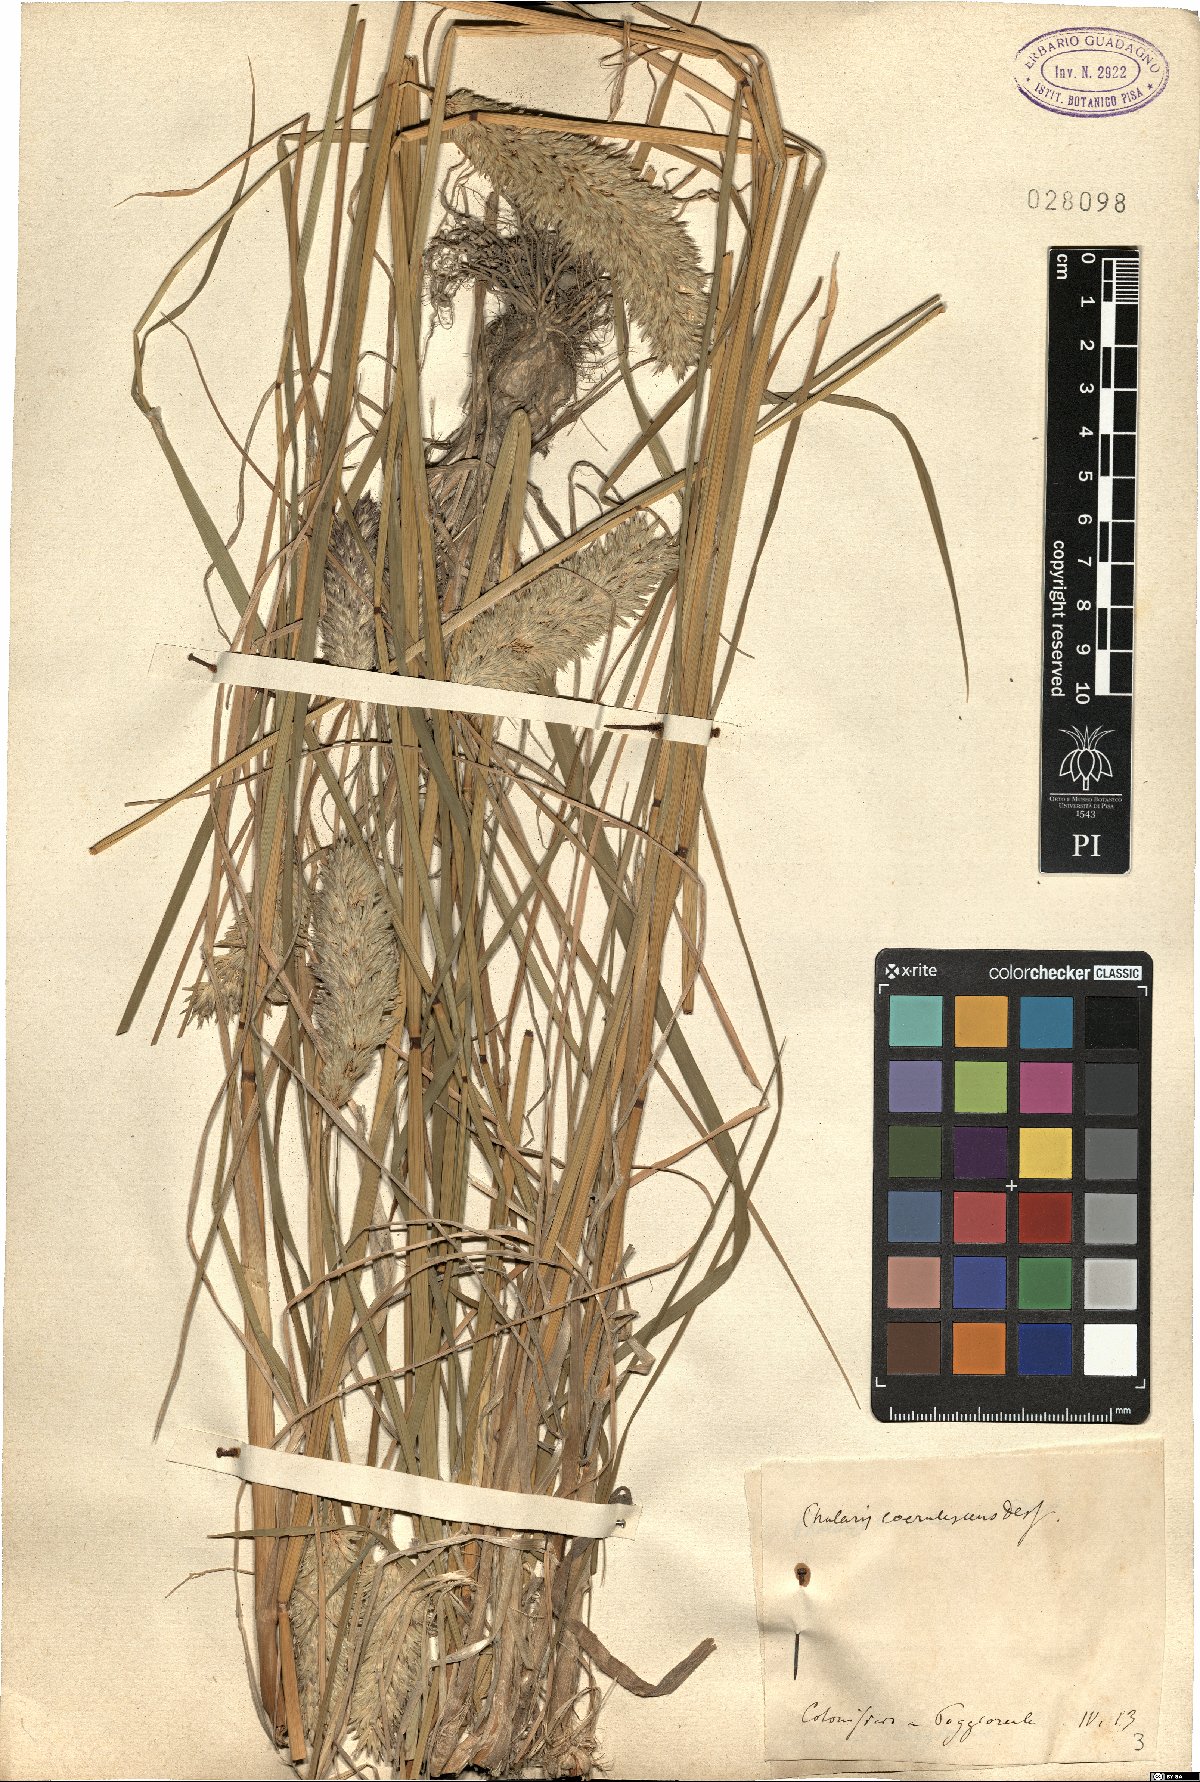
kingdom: Plantae
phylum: Tracheophyta
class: Liliopsida
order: Poales
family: Poaceae
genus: Phalaris
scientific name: Phalaris coerulescens
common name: Sunolgrass
